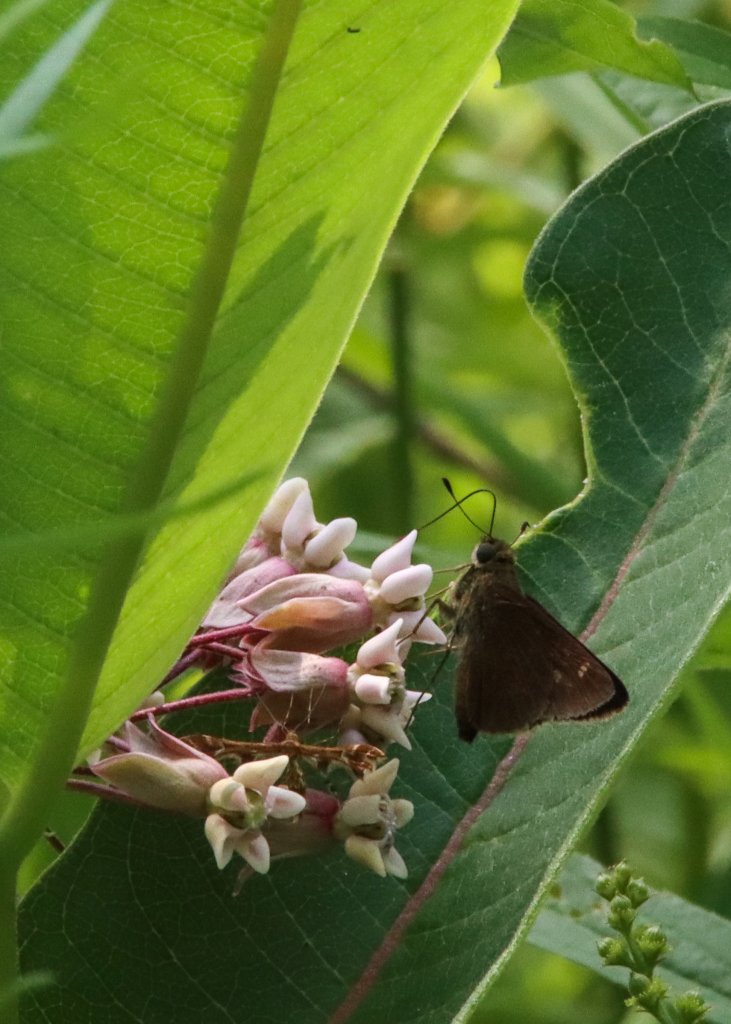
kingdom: Animalia
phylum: Arthropoda
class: Insecta
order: Lepidoptera
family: Hesperiidae
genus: Lon
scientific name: Lon hobomok
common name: Hobomok Skipper
